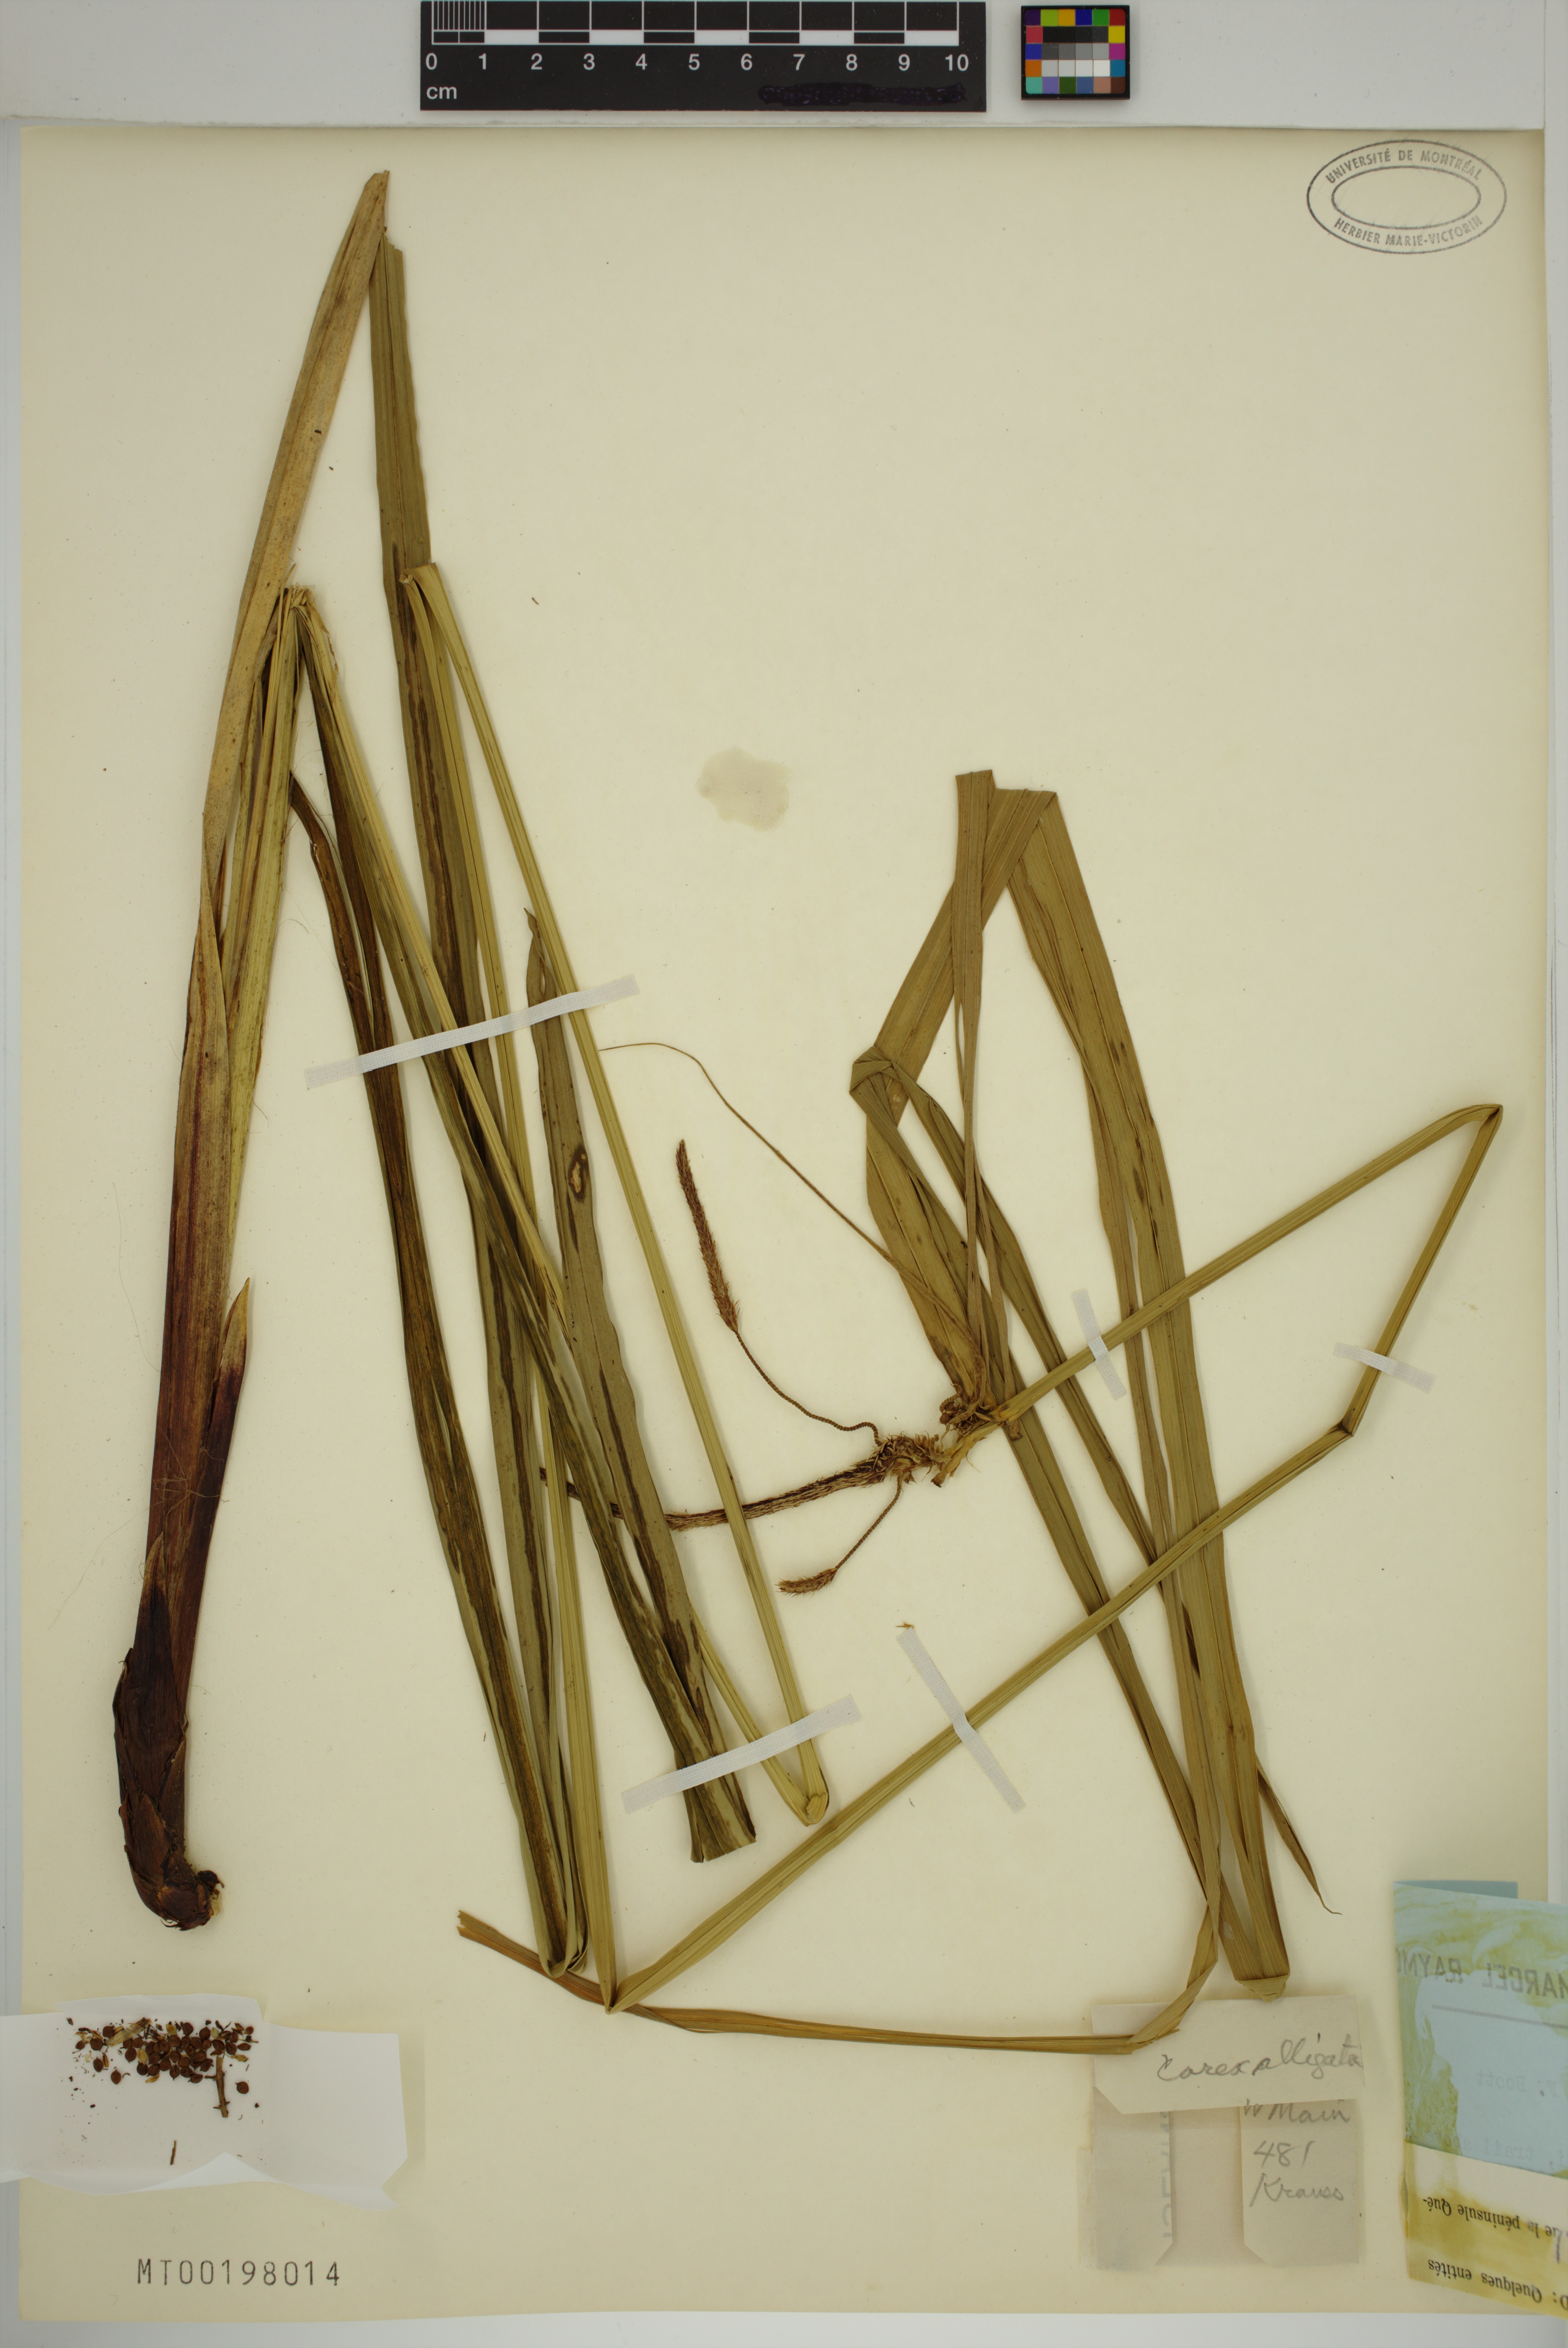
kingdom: Plantae
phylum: Tracheophyta
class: Liliopsida
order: Poales
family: Cyperaceae
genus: Carex
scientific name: Carex alligata
